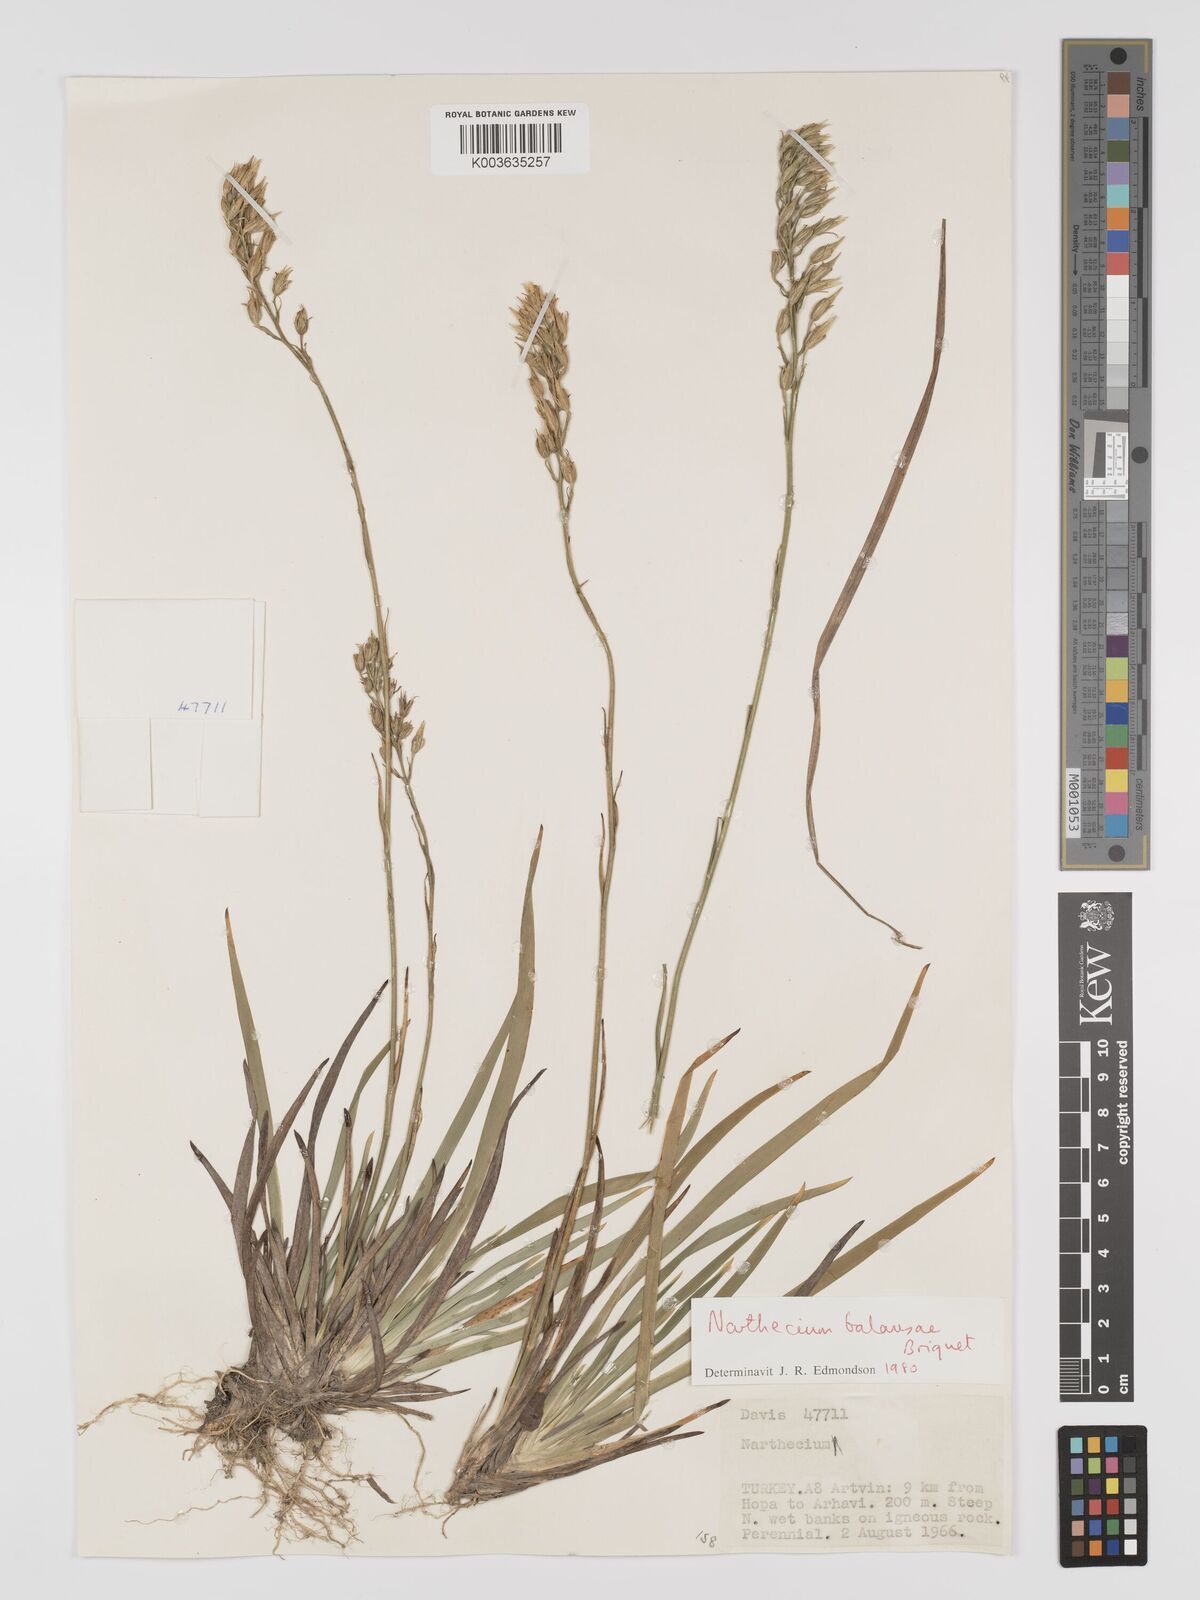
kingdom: Plantae
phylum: Tracheophyta
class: Liliopsida
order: Dioscoreales
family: Nartheciaceae
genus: Narthecium
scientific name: Narthecium
